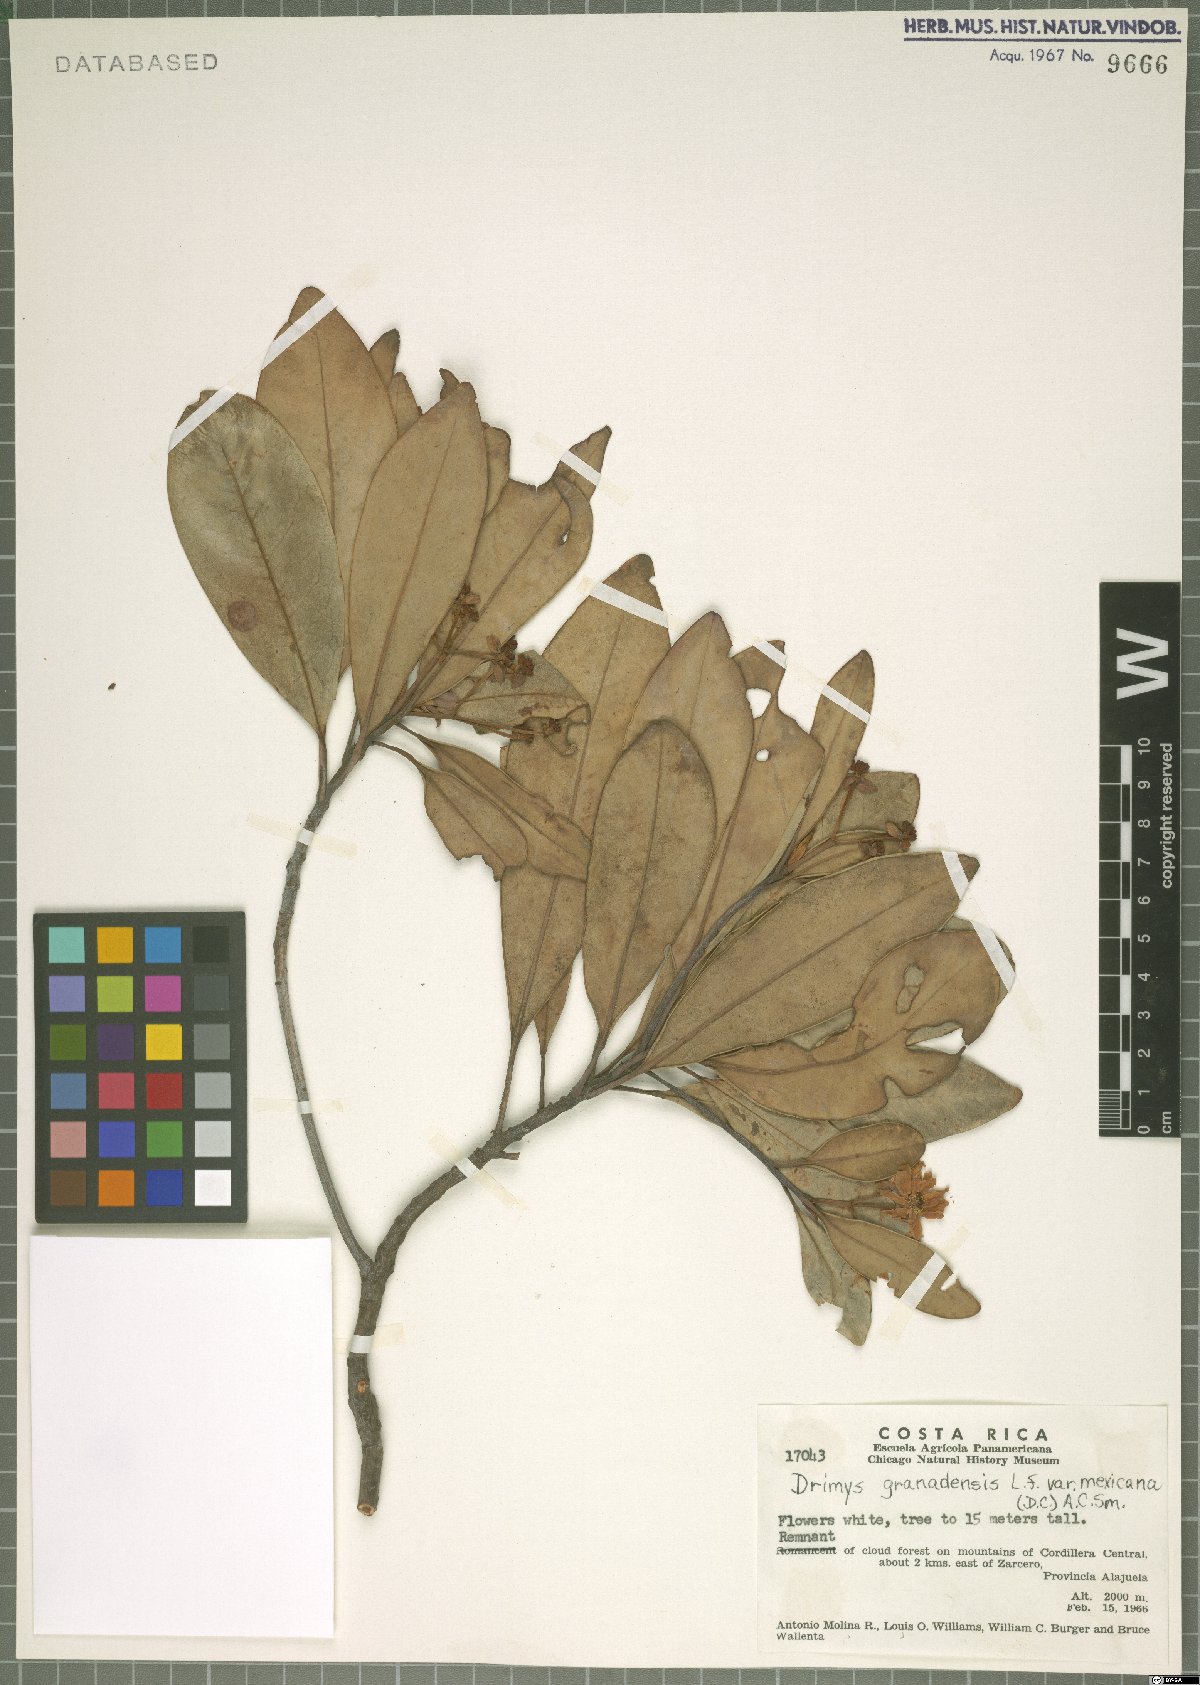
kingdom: Plantae
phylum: Tracheophyta
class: Magnoliopsida
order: Canellales
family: Winteraceae
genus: Drimys
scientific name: Drimys granadensis
